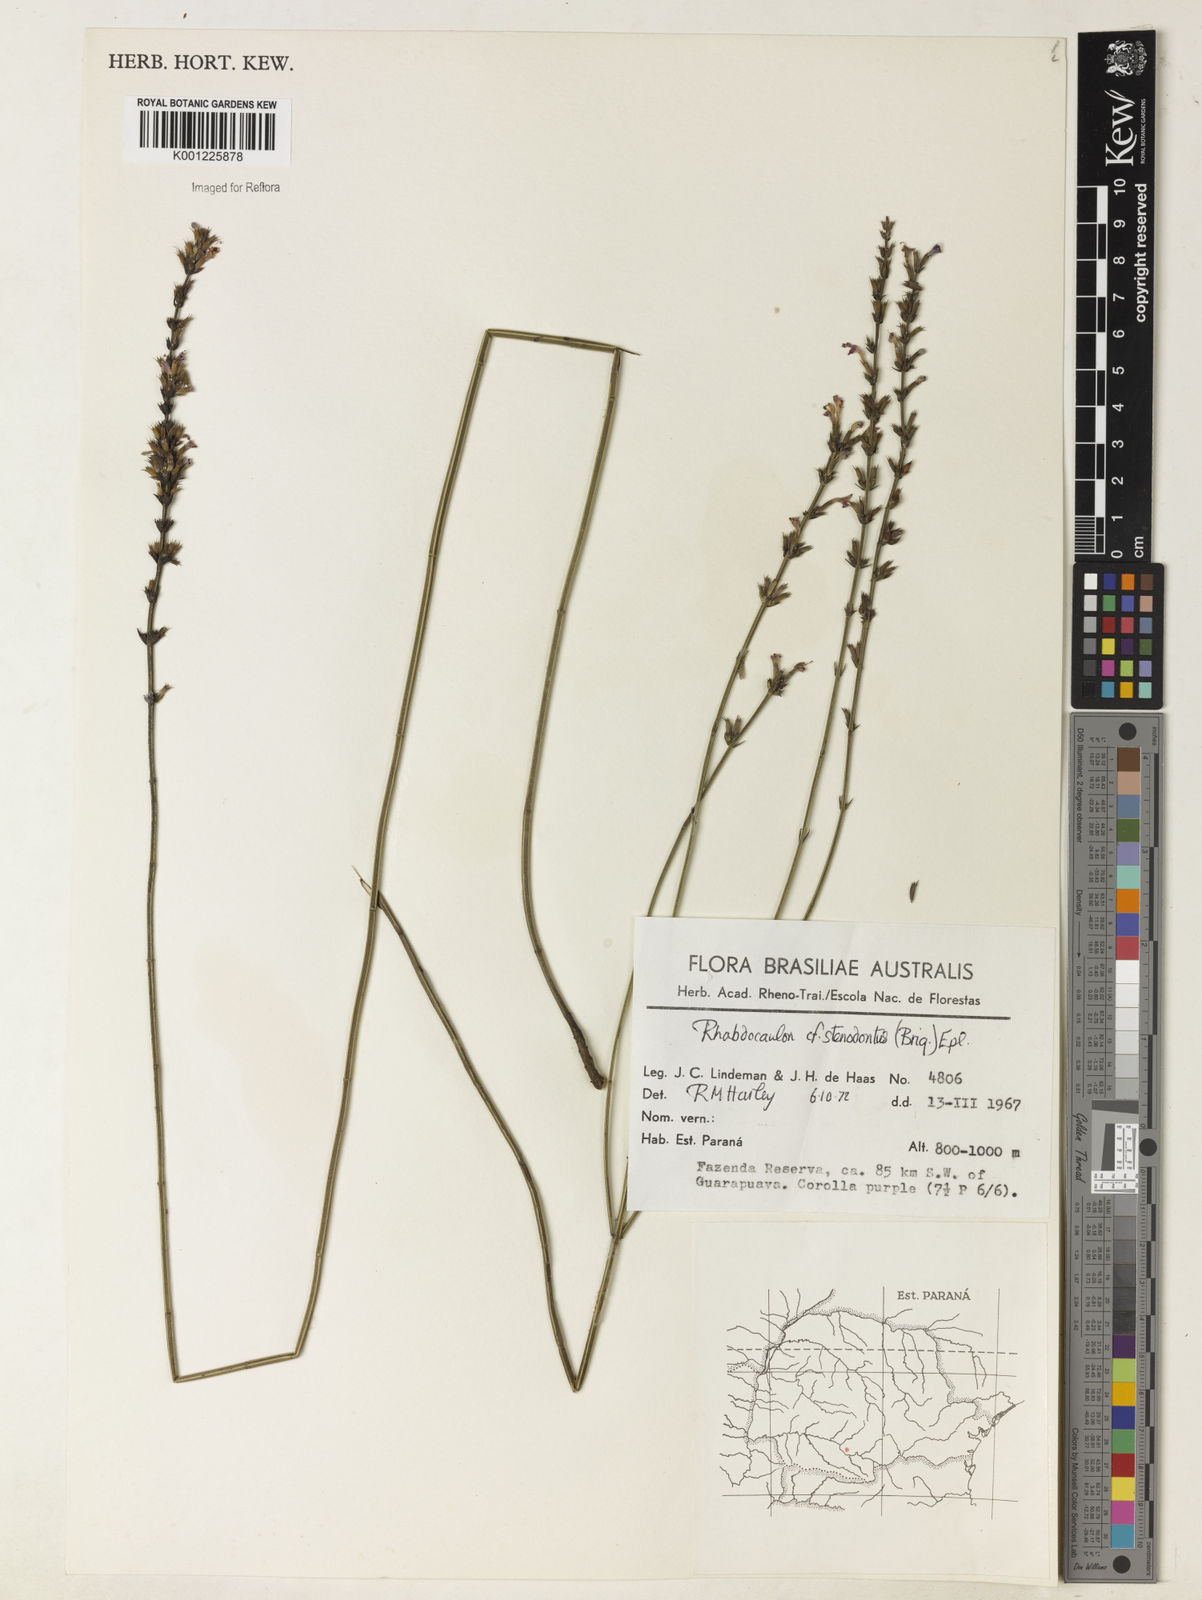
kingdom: Plantae
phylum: Tracheophyta
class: Magnoliopsida
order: Lamiales
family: Lamiaceae
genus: Rhabdocaulon
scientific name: Rhabdocaulon stenodontum
